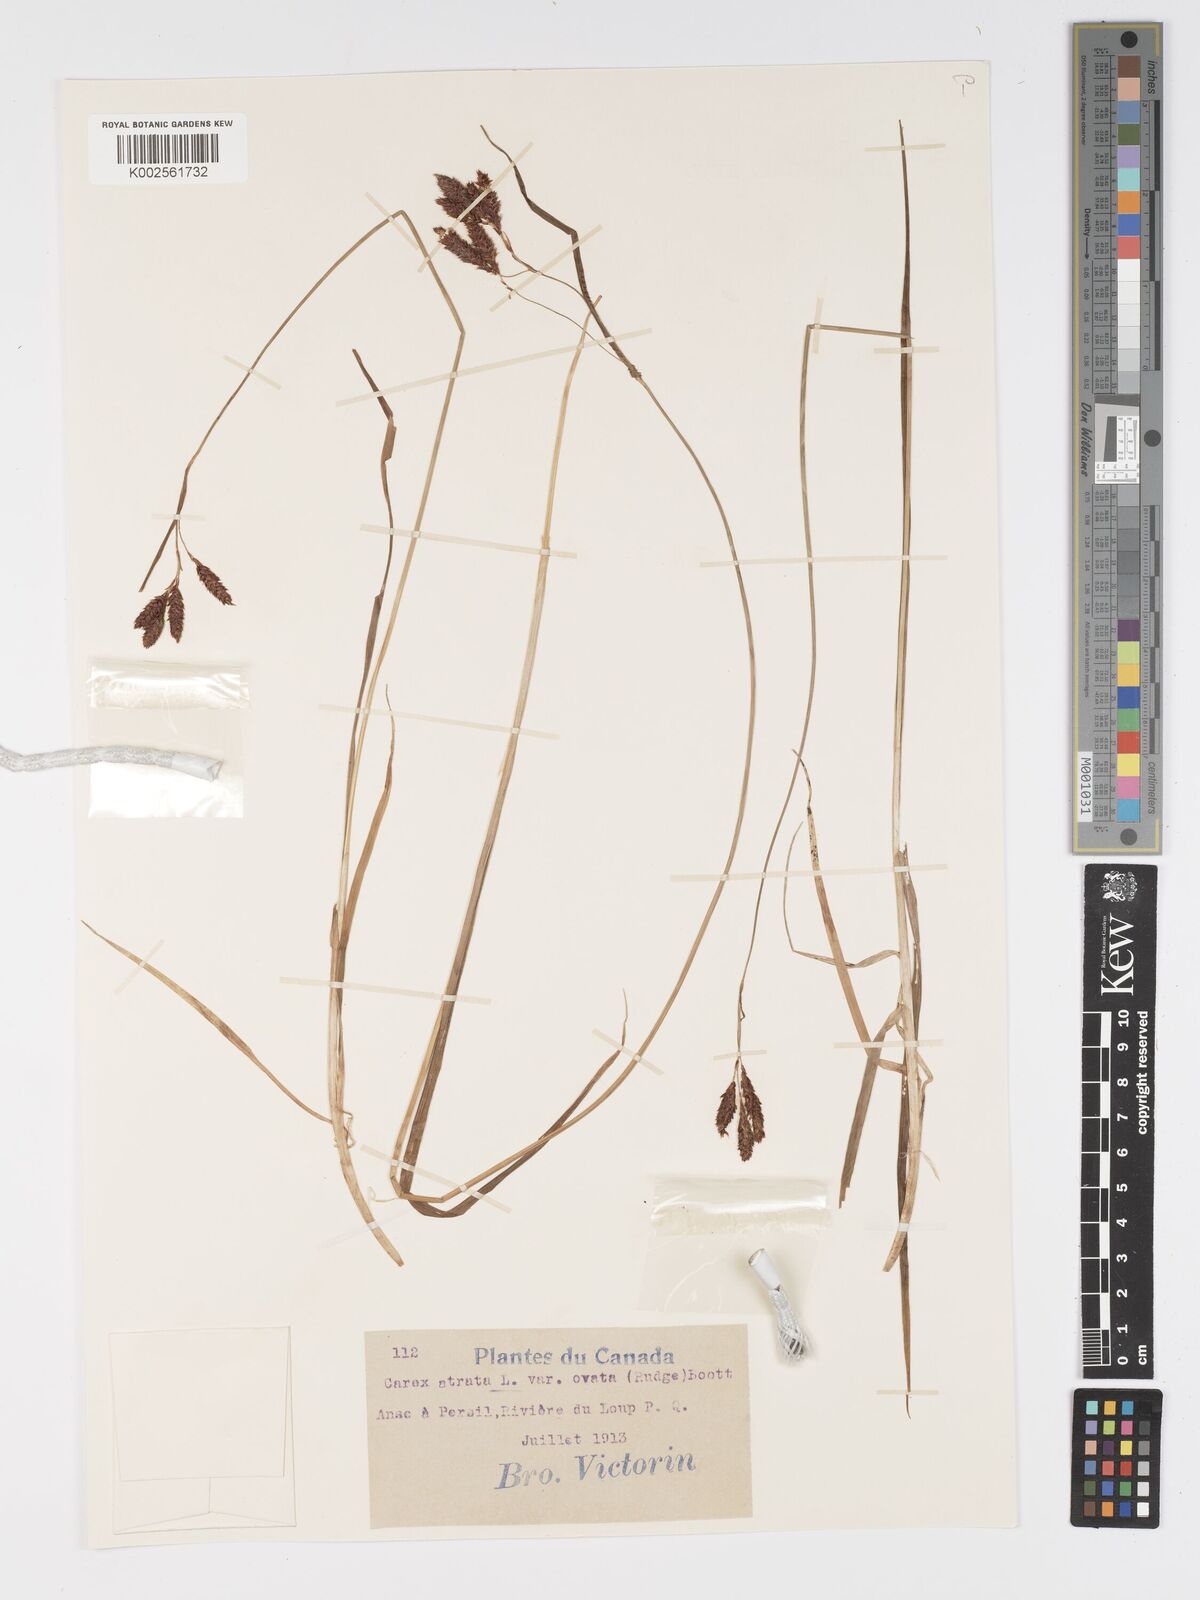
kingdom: Plantae
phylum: Tracheophyta
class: Liliopsida
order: Poales
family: Cyperaceae
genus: Carex
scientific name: Carex atratiformis
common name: Black sedge
